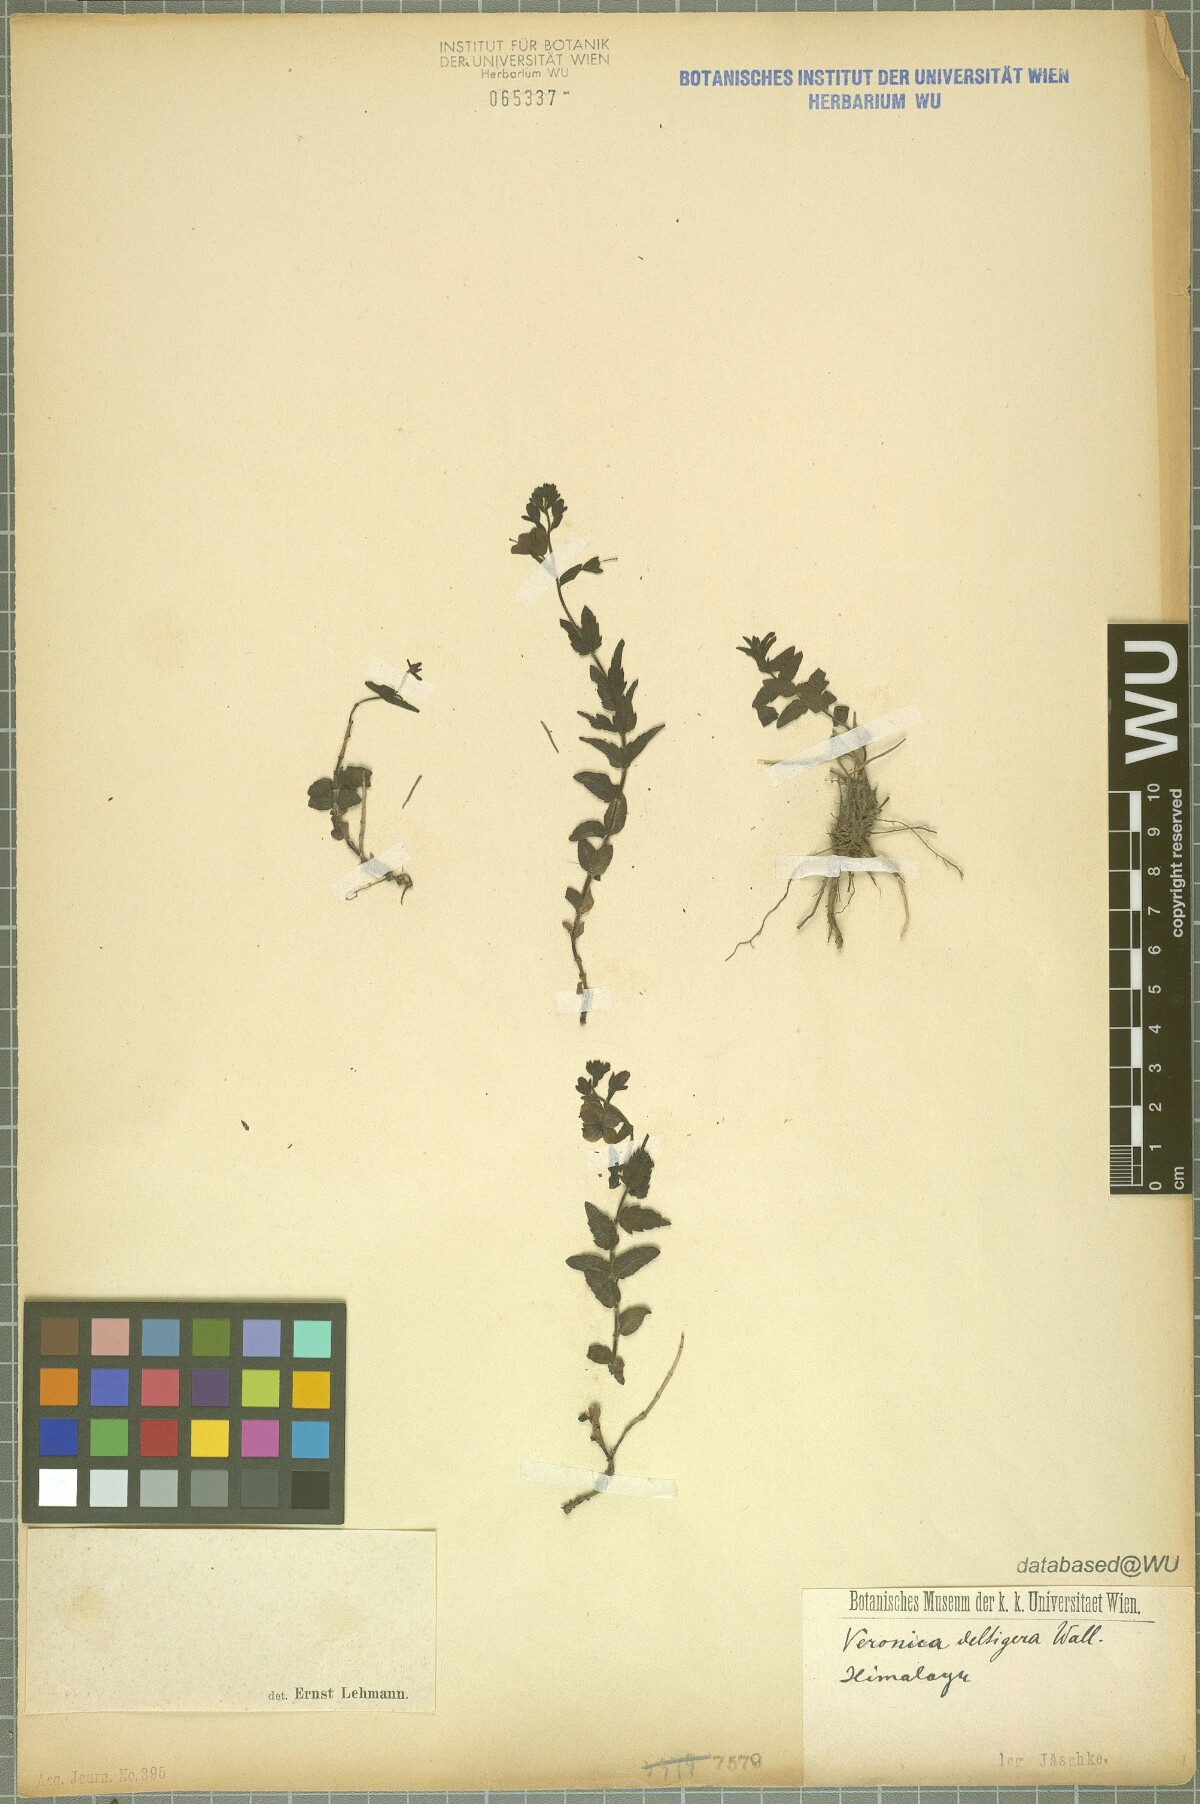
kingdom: Plantae
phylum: Tracheophyta
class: Magnoliopsida
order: Lamiales
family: Plantaginaceae
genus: Veronica
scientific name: Veronica deltigera
